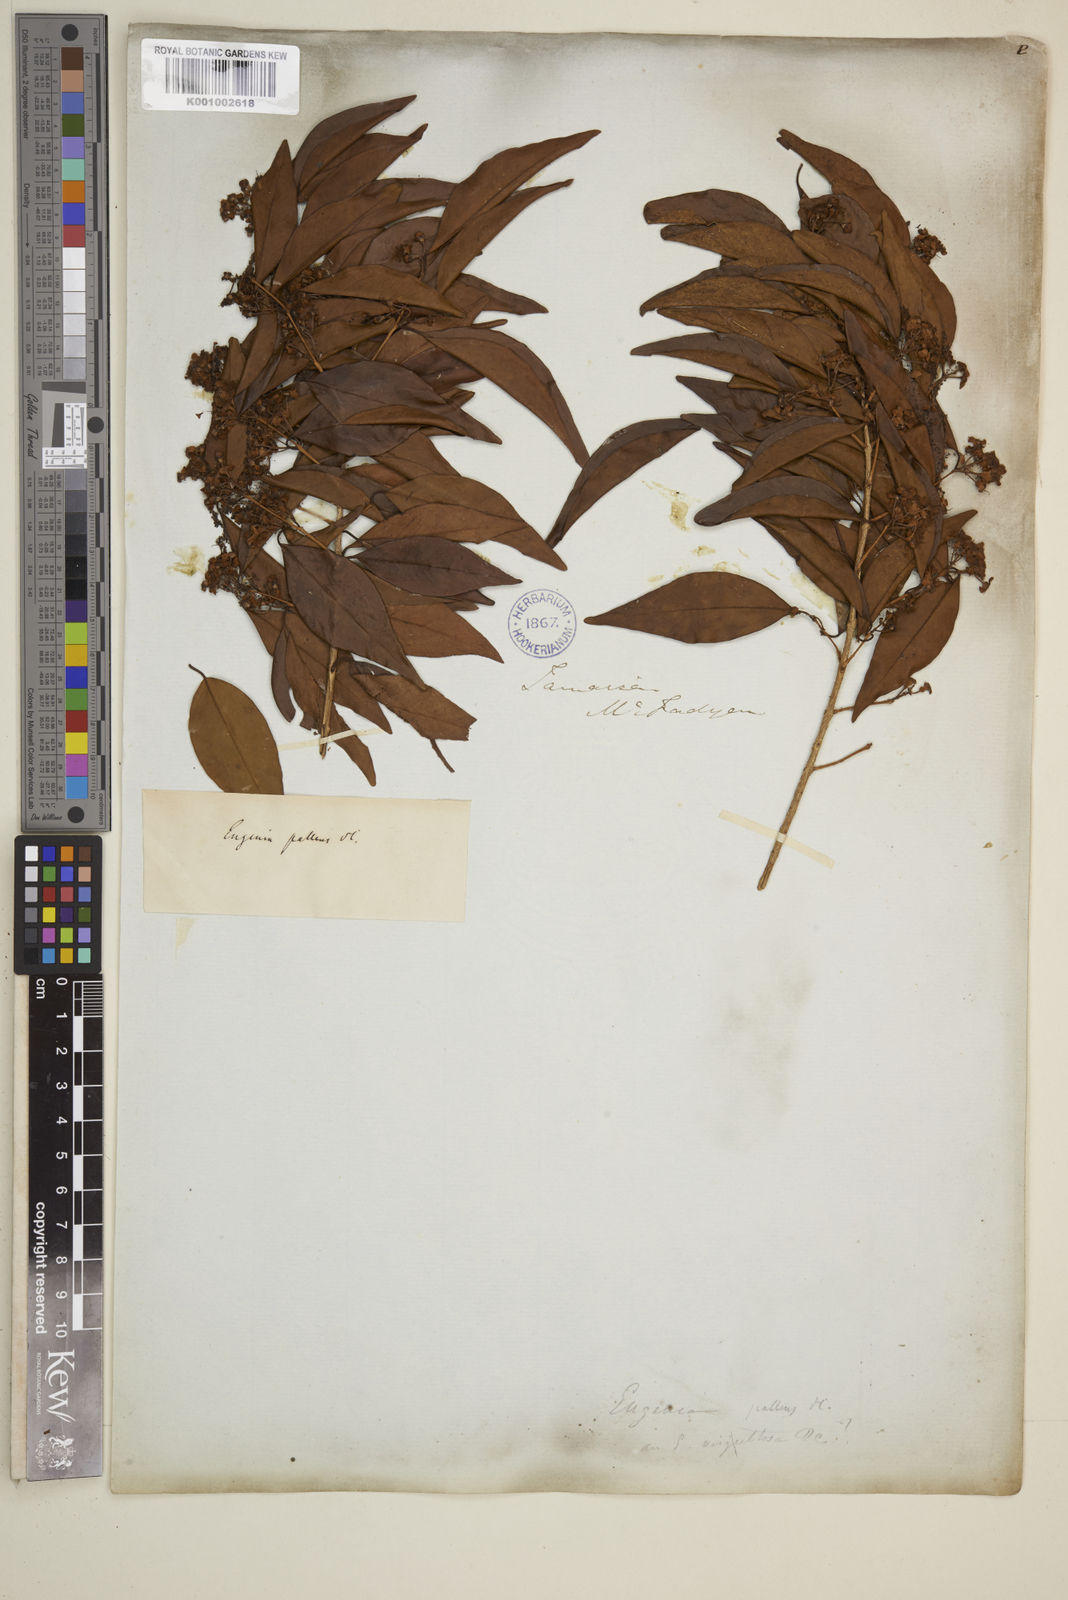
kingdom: Plantae
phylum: Tracheophyta
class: Magnoliopsida
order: Myrtales
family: Myrtaceae
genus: Myrcia
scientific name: Myrcia neopallens
